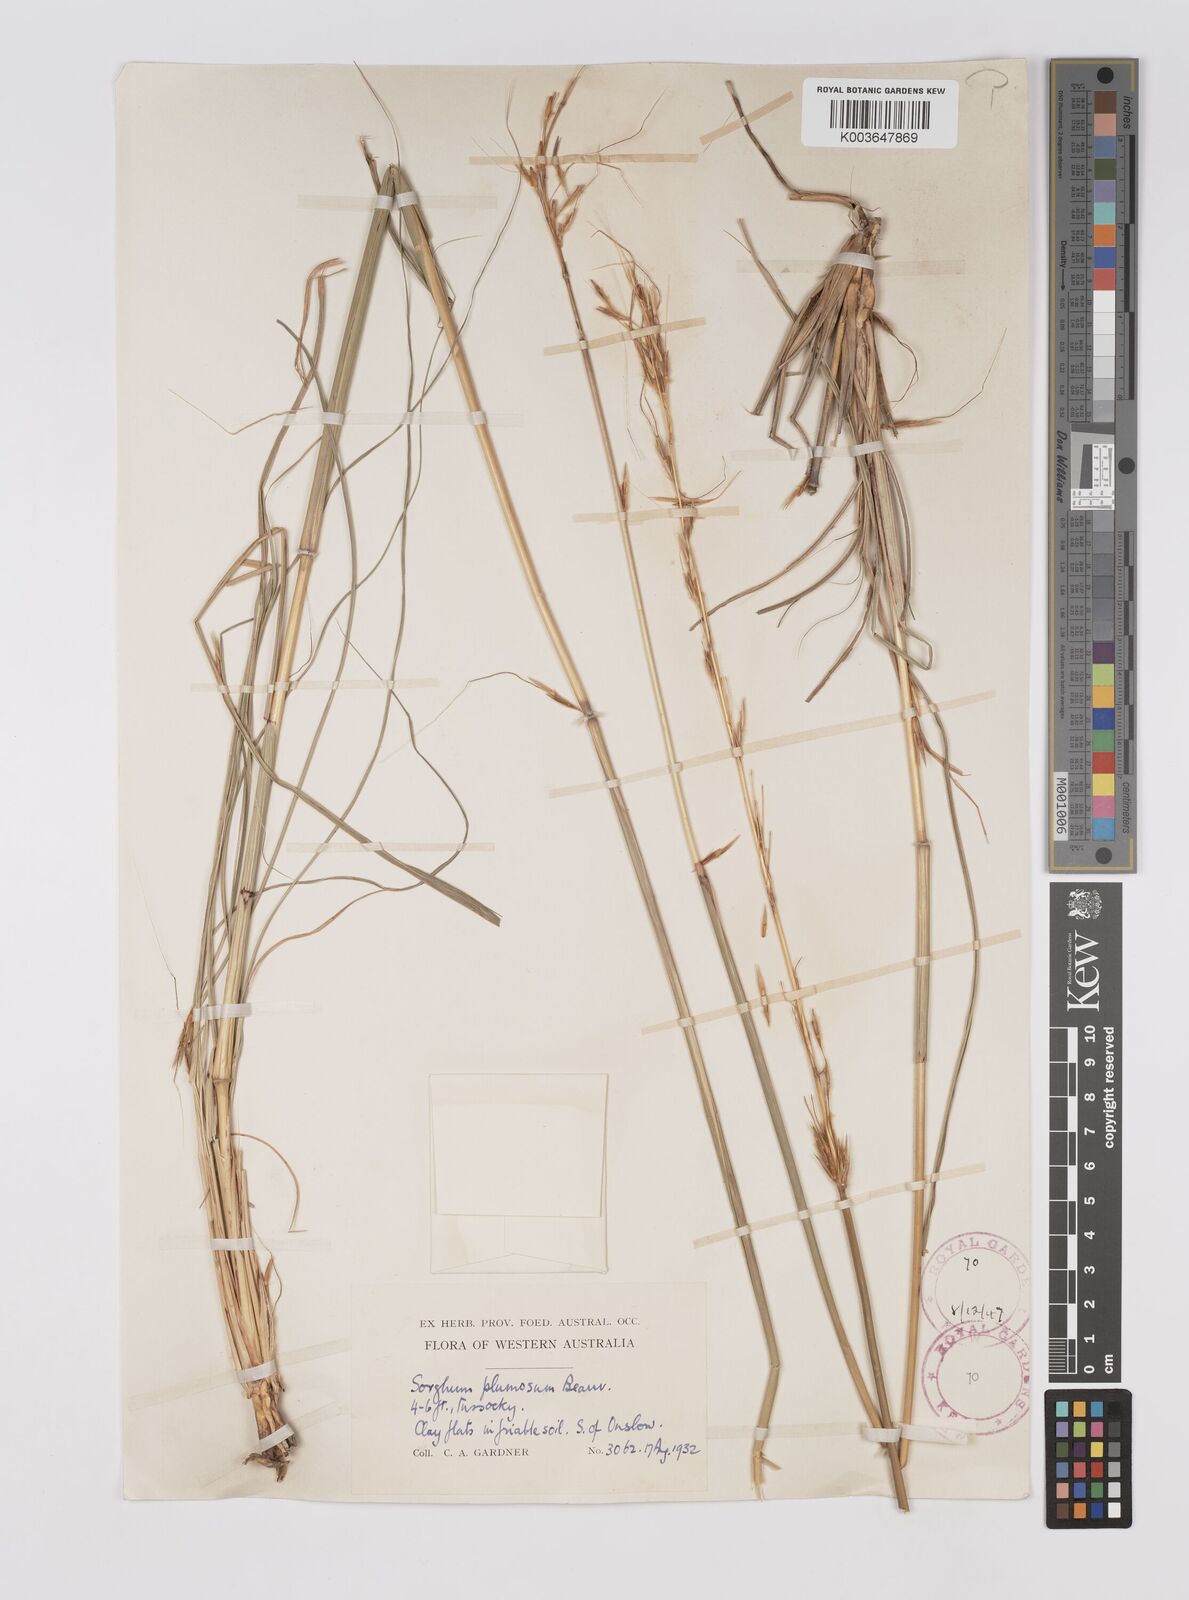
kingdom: Plantae
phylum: Tracheophyta
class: Liliopsida
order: Poales
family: Poaceae
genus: Sarga
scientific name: Sarga plumosa
